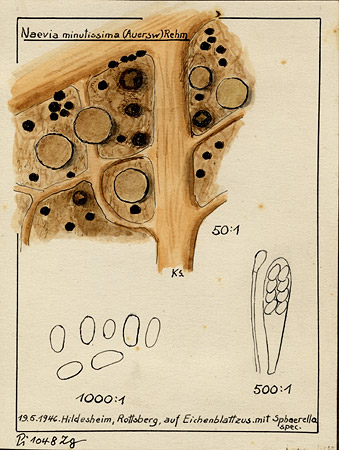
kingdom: Fungi
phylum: Ascomycota
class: Leotiomycetes
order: Helotiales
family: Discinellaceae
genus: Naevala
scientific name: Naevala perexigua
